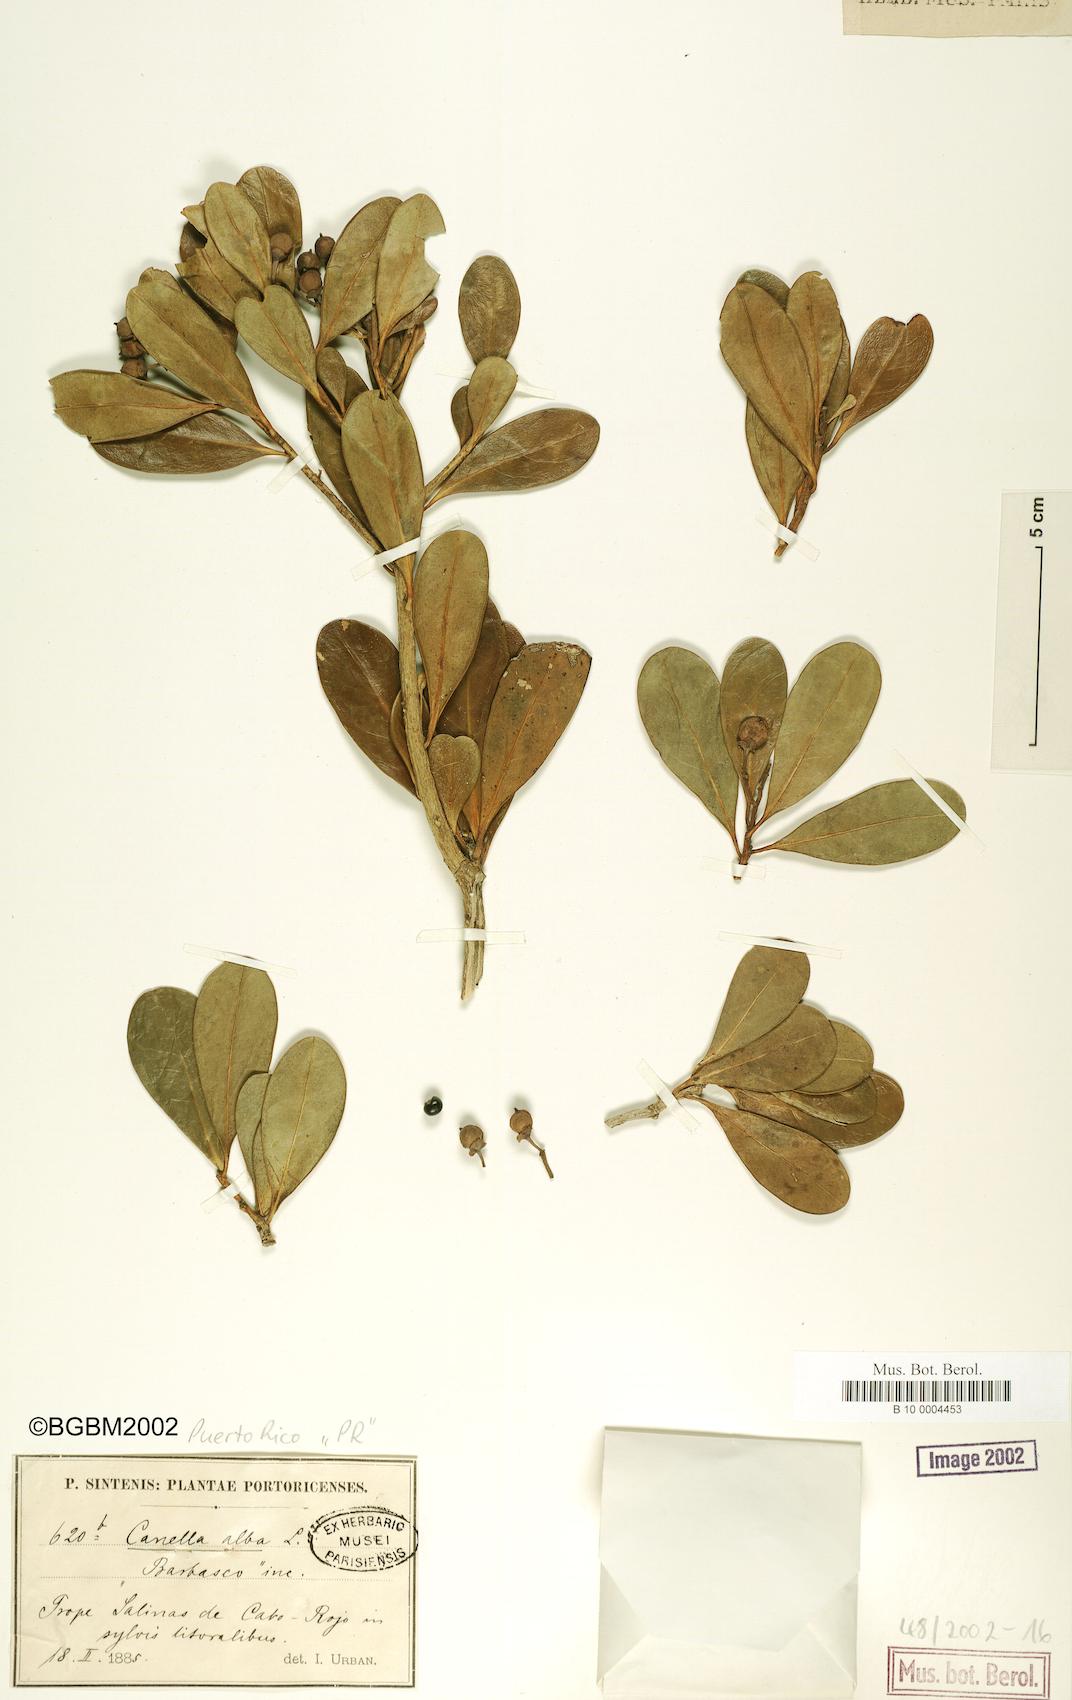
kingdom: Plantae
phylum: Tracheophyta
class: Magnoliopsida
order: Canellales
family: Canellaceae
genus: Canella
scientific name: Canella alba
